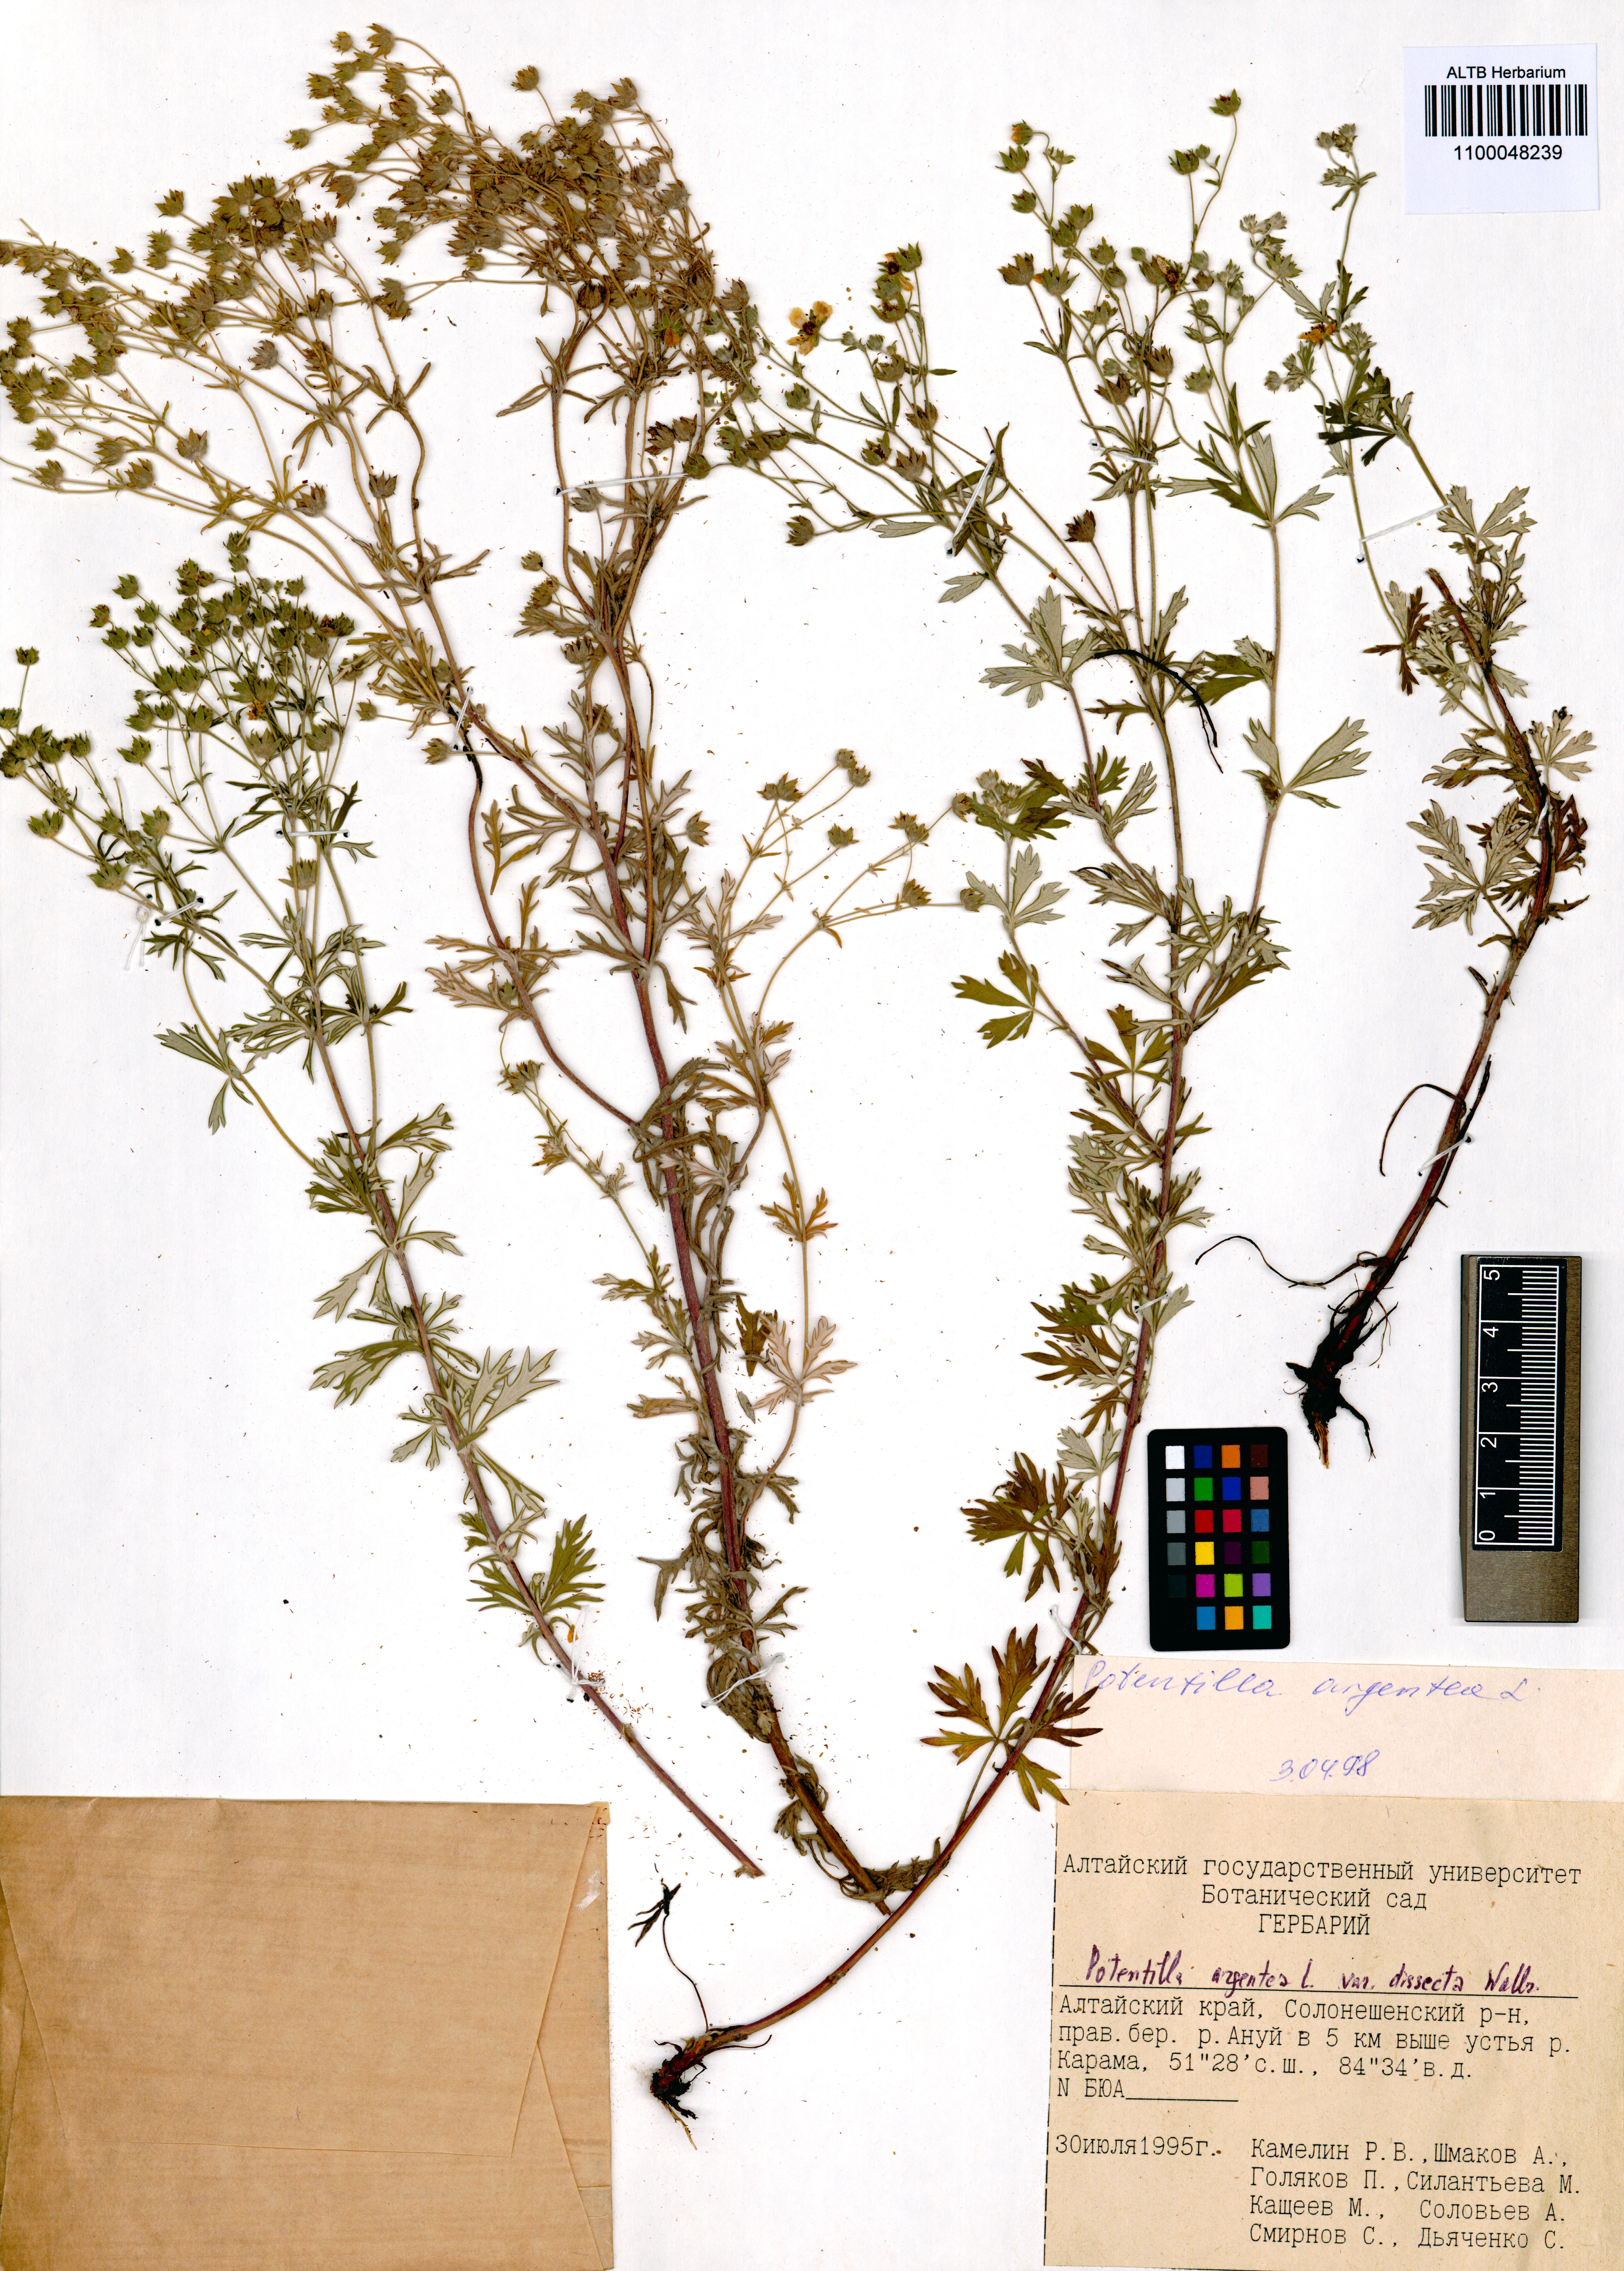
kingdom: Plantae
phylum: Tracheophyta
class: Magnoliopsida
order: Rosales
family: Rosaceae
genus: Potentilla
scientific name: Potentilla argentea
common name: Hoary cinquefoil
